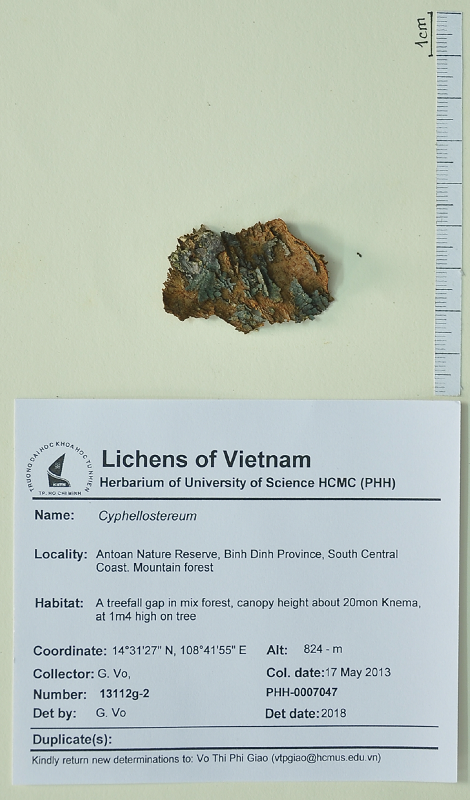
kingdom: Fungi
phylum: Basidiomycota
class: Agaricomycetes
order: Agaricales
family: Hygrophoraceae
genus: Cyphellostereum
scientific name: Cyphellostereum
